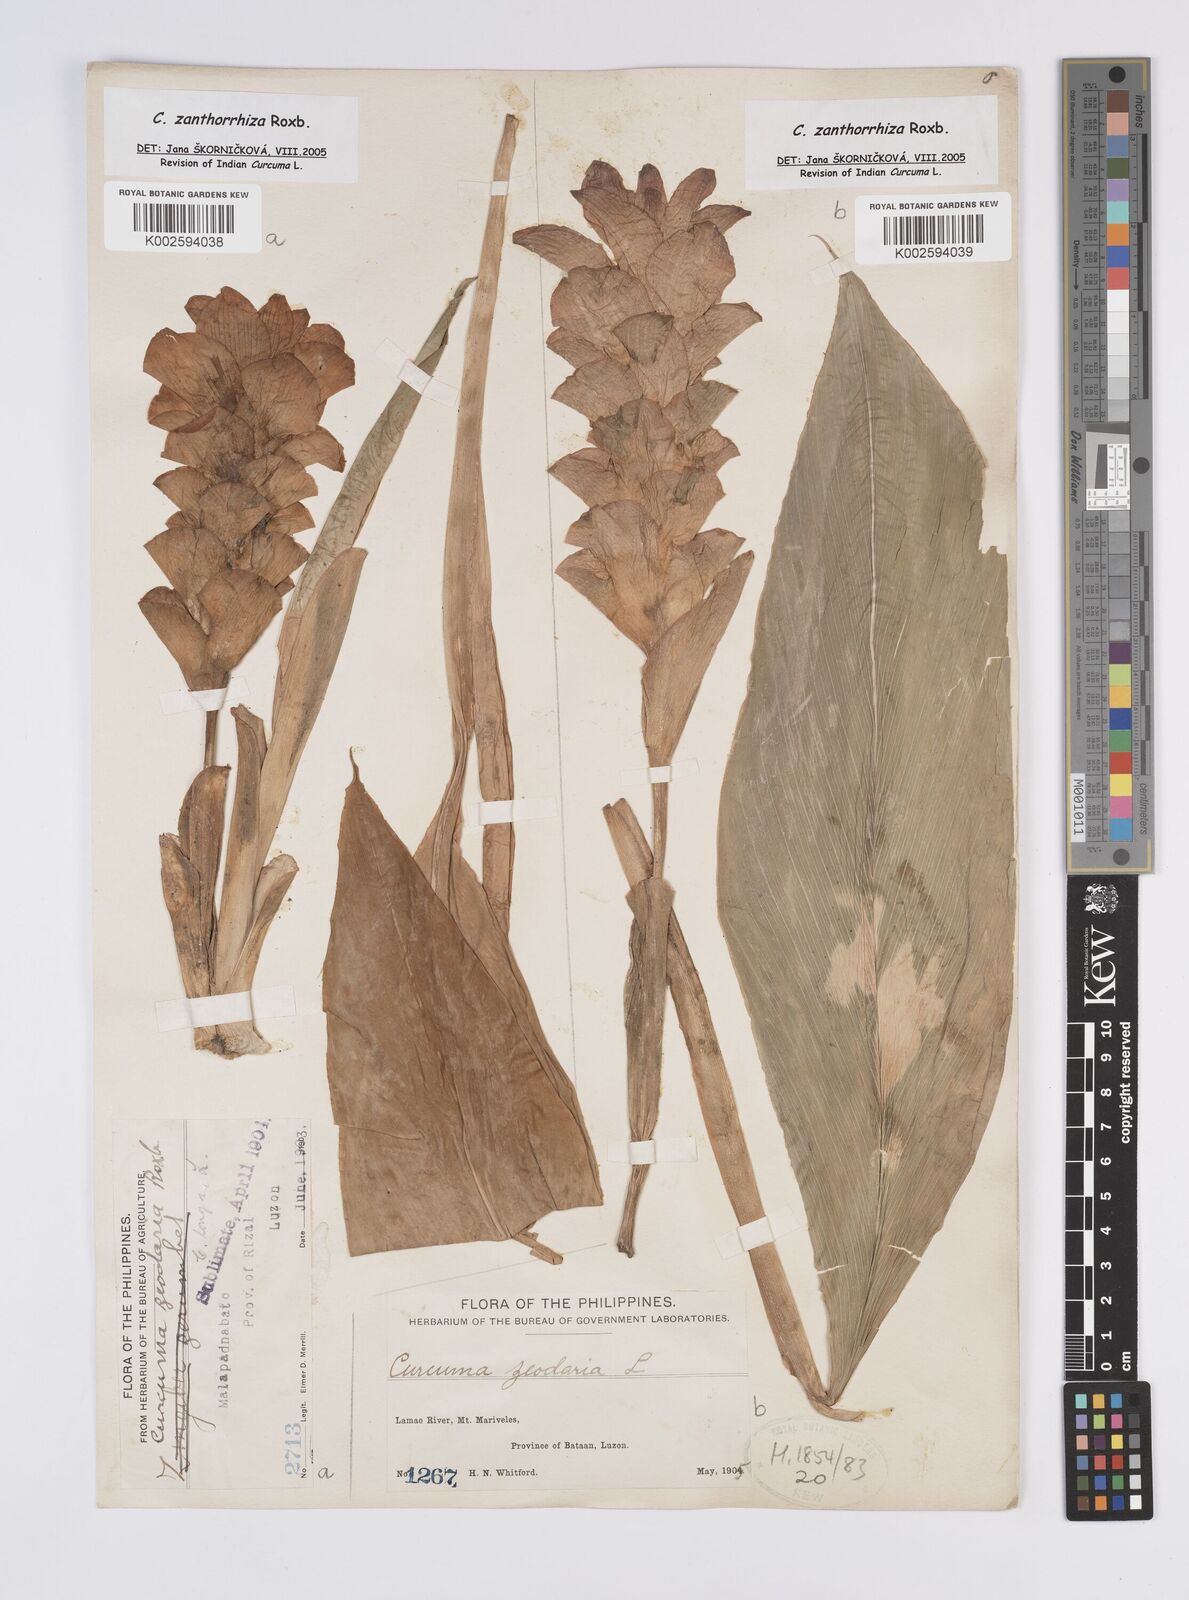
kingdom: Plantae
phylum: Tracheophyta
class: Liliopsida
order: Zingiberales
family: Zingiberaceae
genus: Curcuma
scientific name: Curcuma zanthorrhiza
